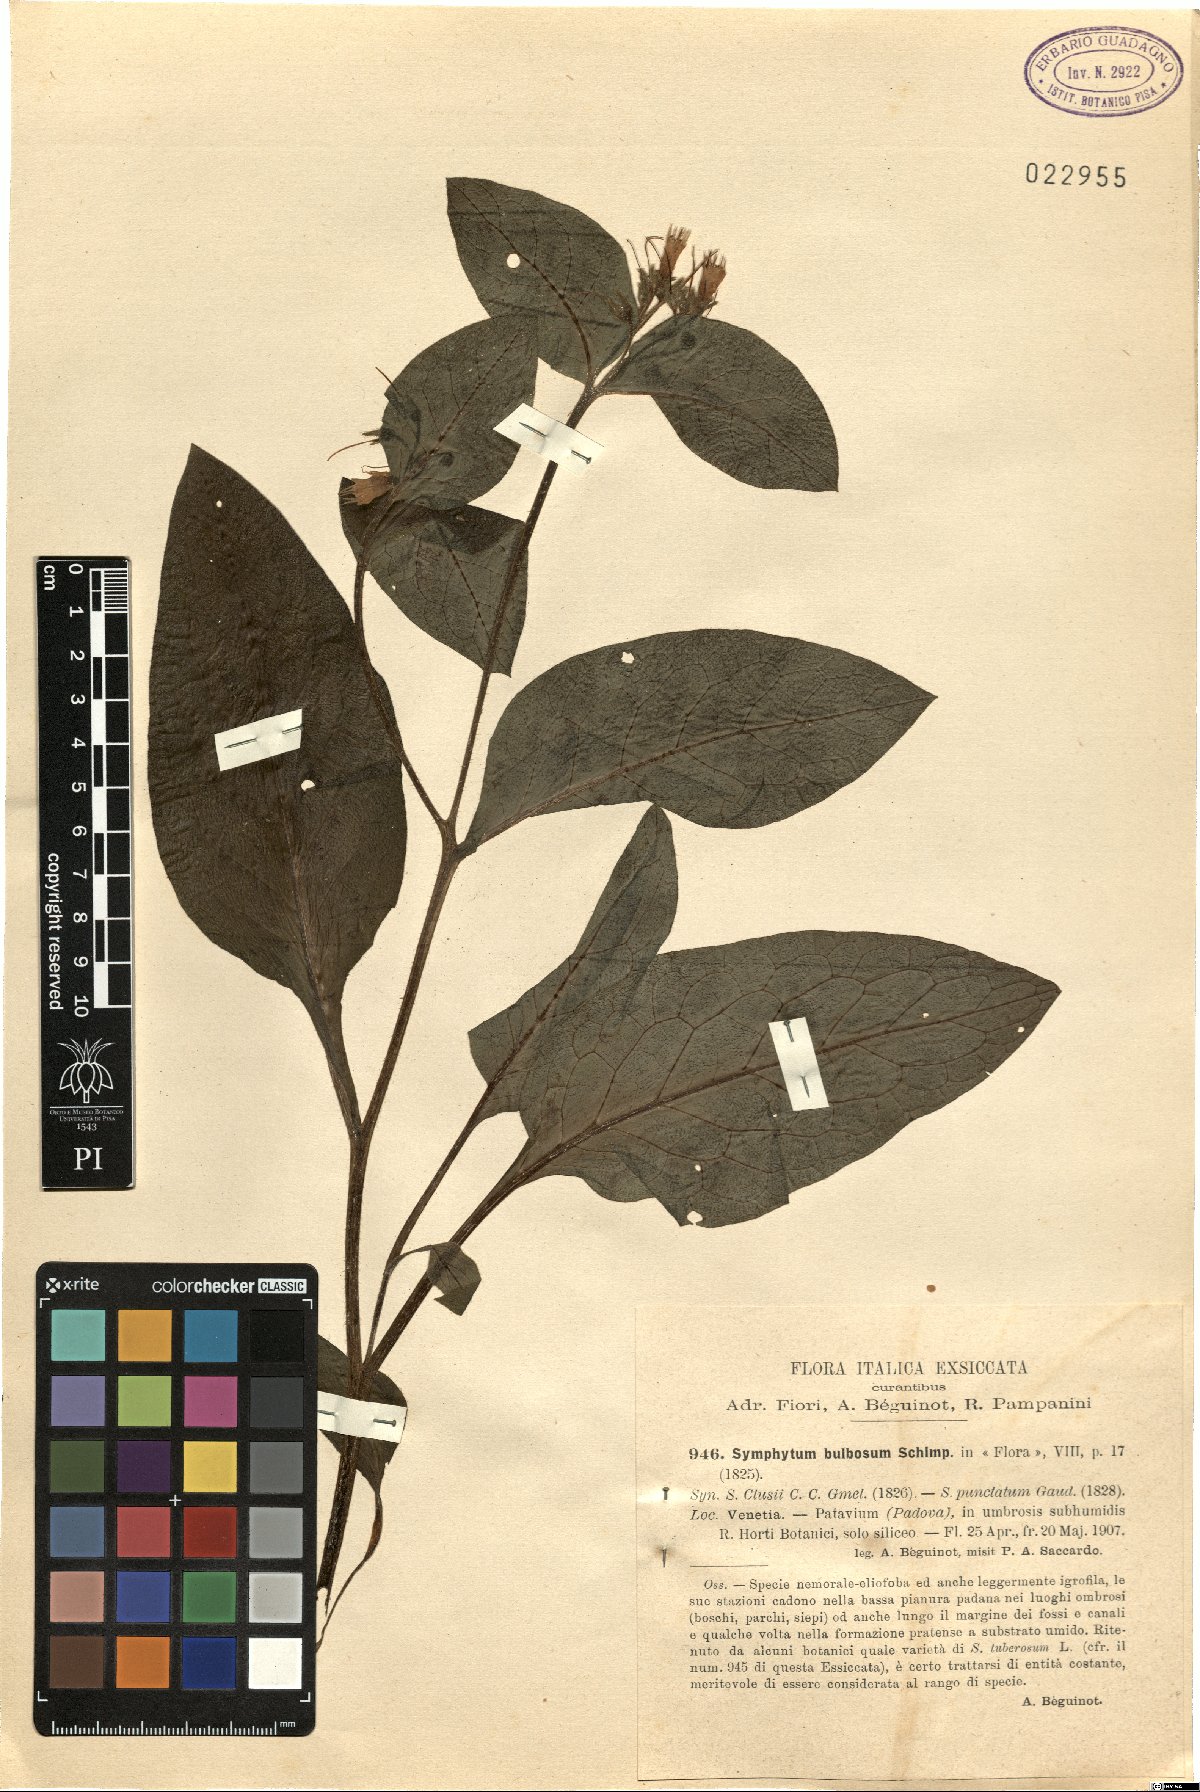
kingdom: Plantae
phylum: Tracheophyta
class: Magnoliopsida
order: Boraginales
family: Boraginaceae
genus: Symphytum
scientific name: Symphytum bulbosum
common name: Bulbous comfrey
